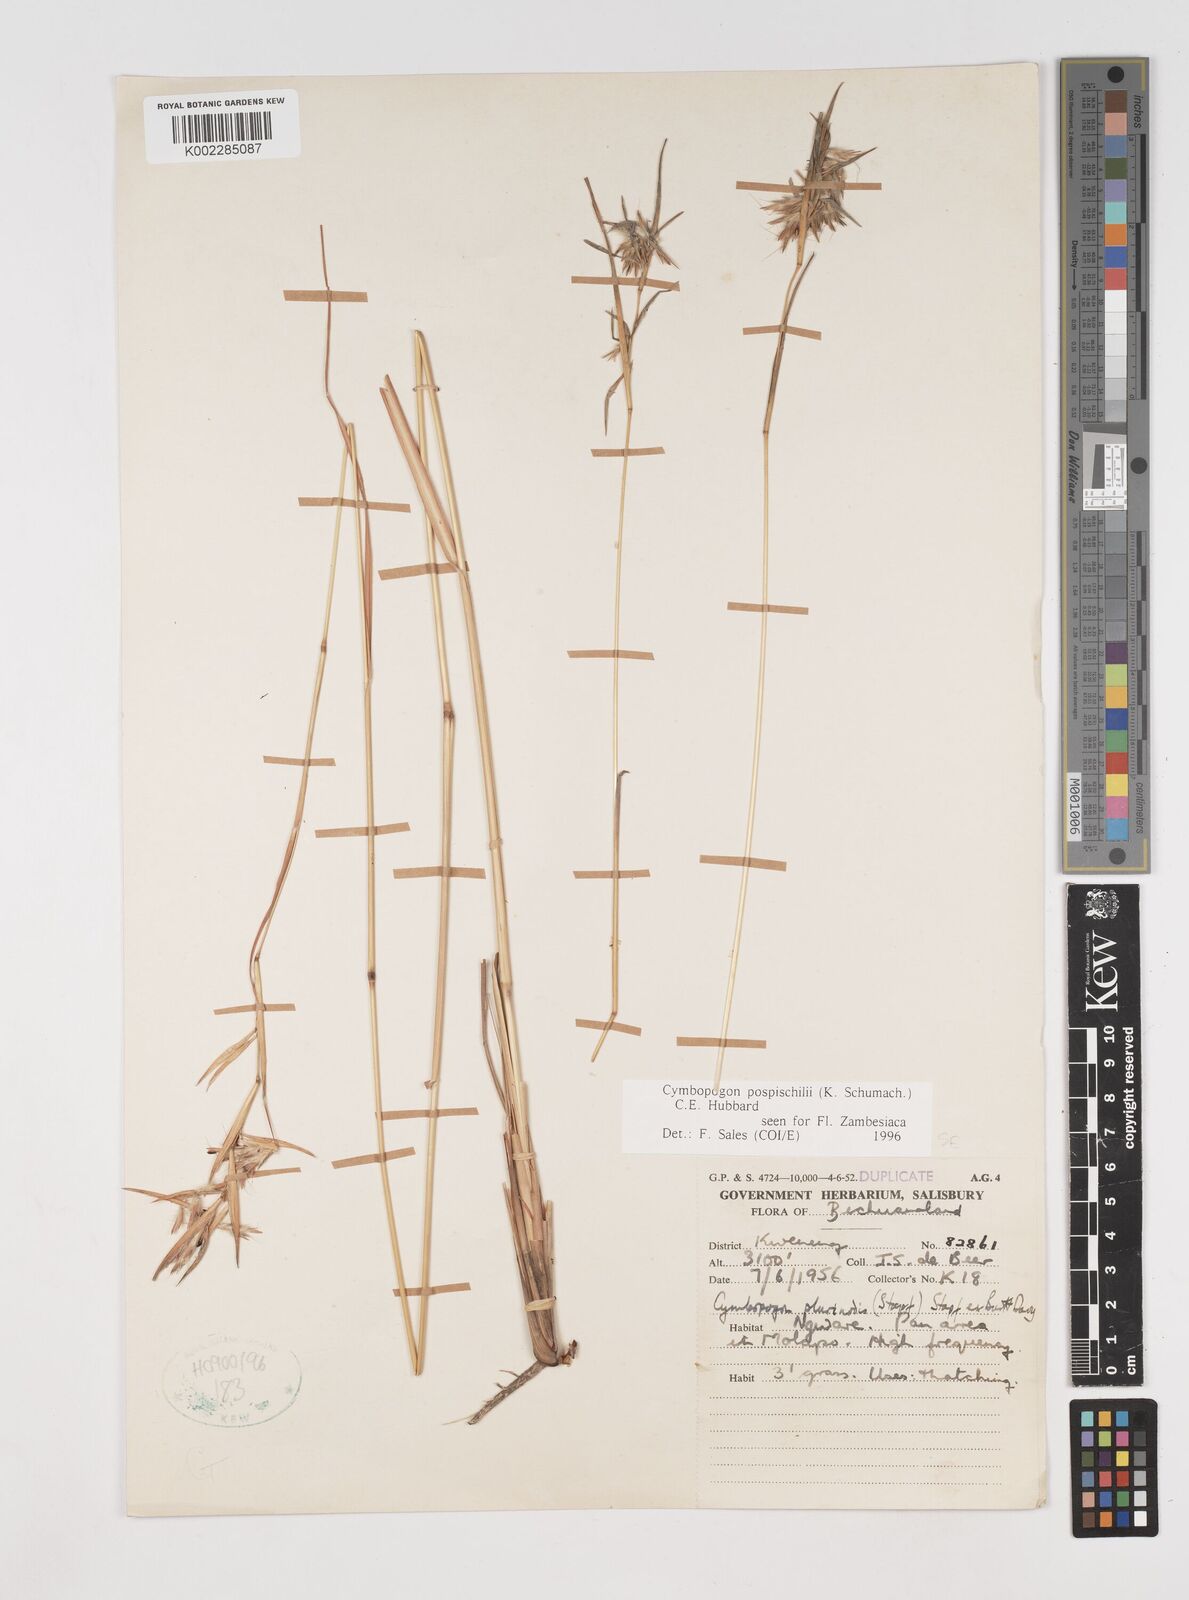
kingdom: Plantae
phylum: Tracheophyta
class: Liliopsida
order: Poales
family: Poaceae
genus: Cymbopogon
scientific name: Cymbopogon pospischilii
